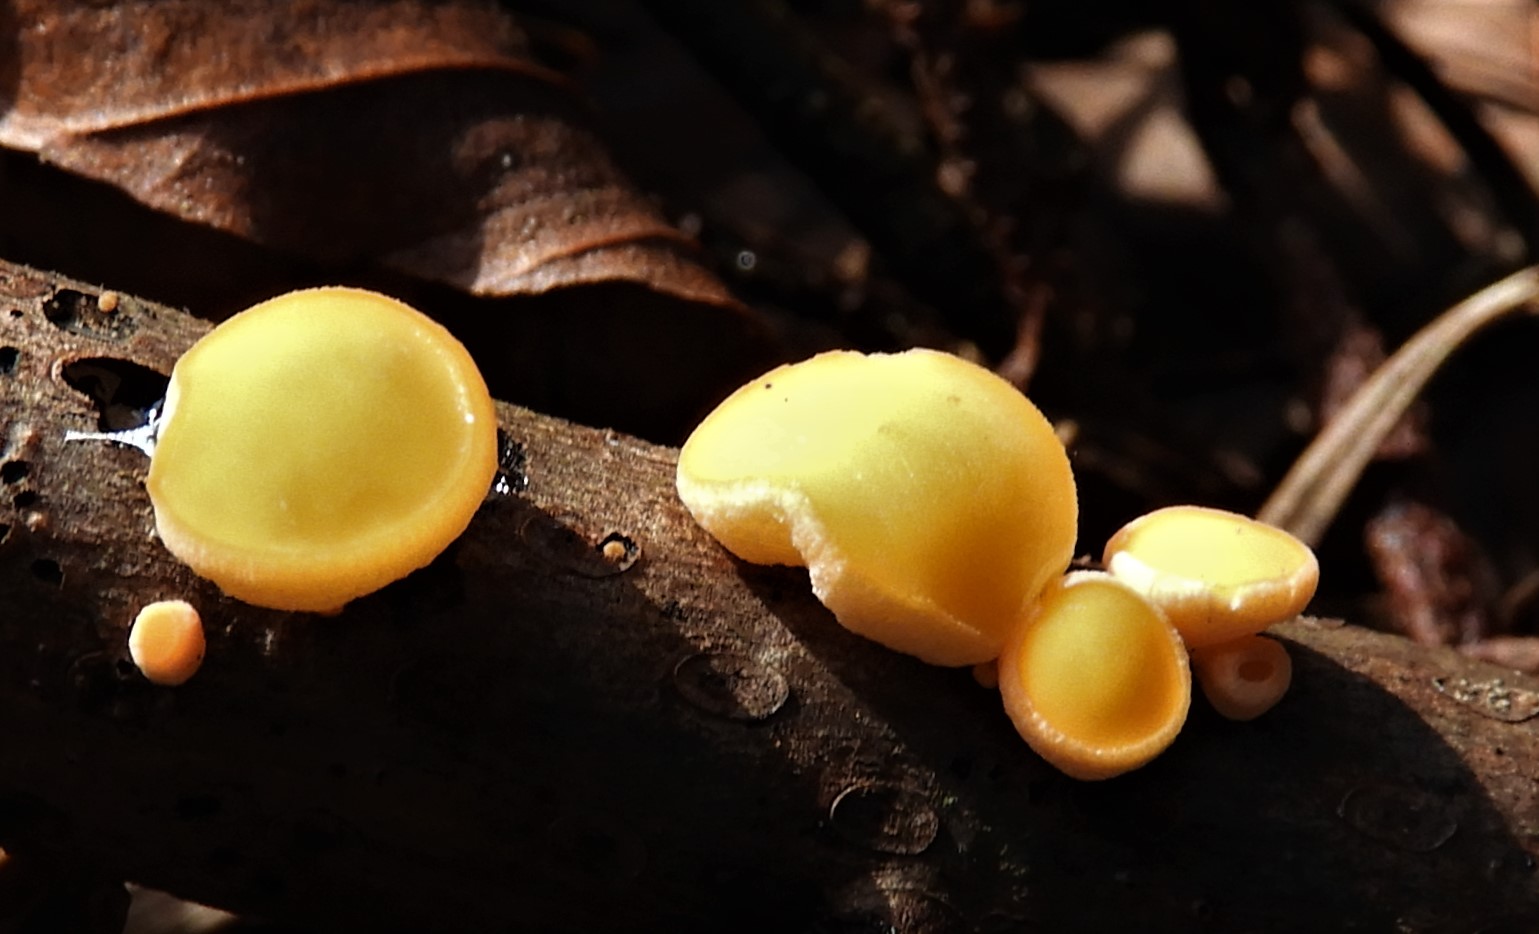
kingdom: Fungi
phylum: Ascomycota
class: Pezizomycetes
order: Pezizales
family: Sarcoscyphaceae
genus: Pithya
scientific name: Pithya vulgaris
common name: stor dukatbæger
